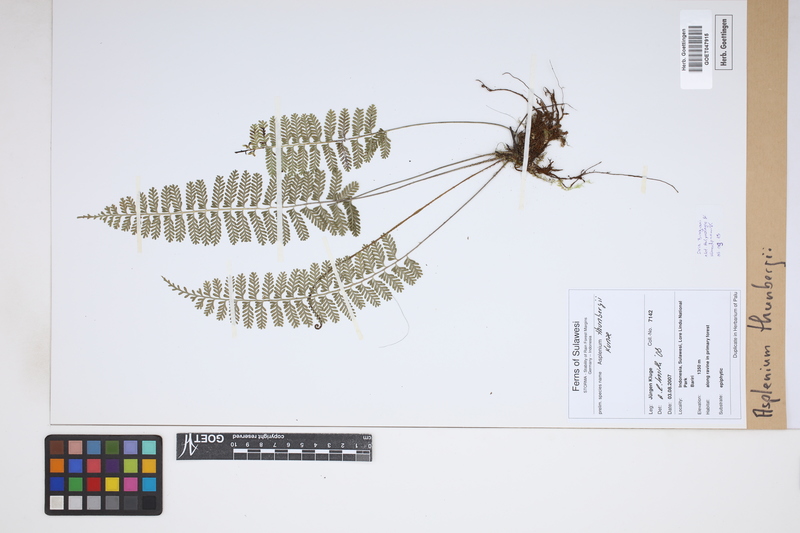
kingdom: Plantae
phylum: Tracheophyta
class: Polypodiopsida
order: Polypodiales
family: Aspleniaceae
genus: Asplenium
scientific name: Asplenium thunbergii
